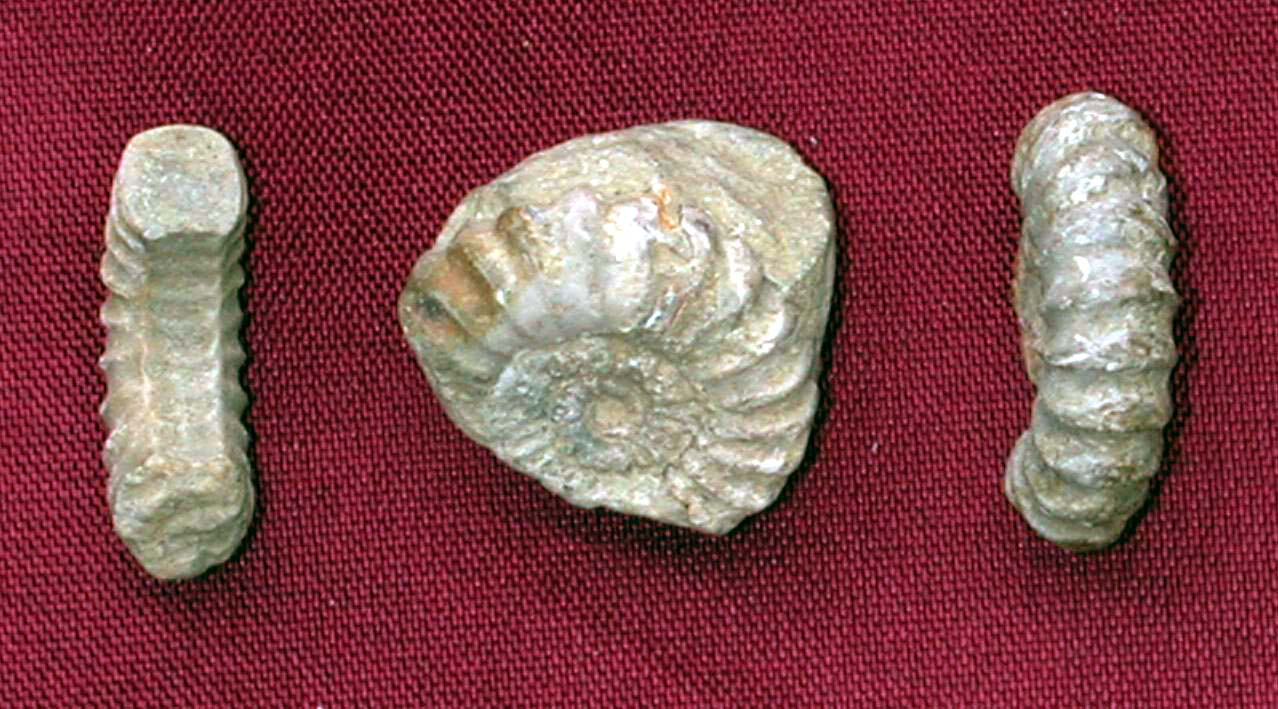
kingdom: Animalia
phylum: Mollusca
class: Cephalopoda
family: Eoderoceratidae
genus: Promicroceras
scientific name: Promicroceras planicosta
